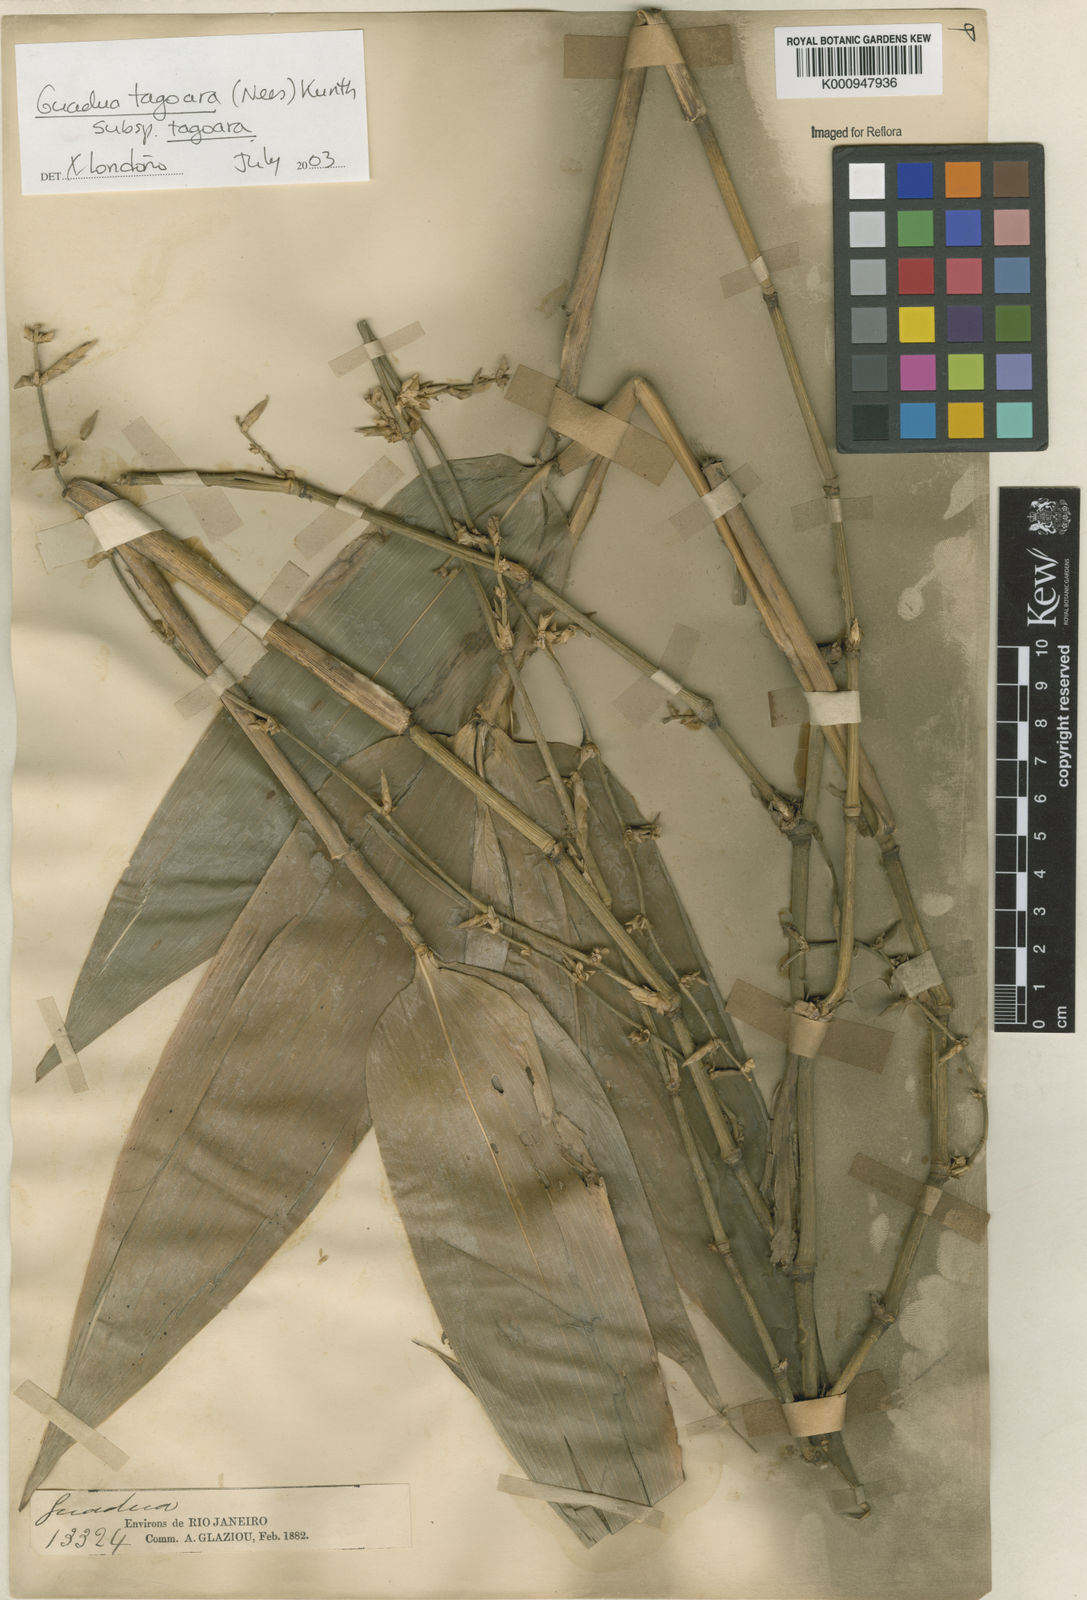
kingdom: Plantae
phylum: Tracheophyta
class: Liliopsida
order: Poales
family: Poaceae
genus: Guadua
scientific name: Guadua tagoara
